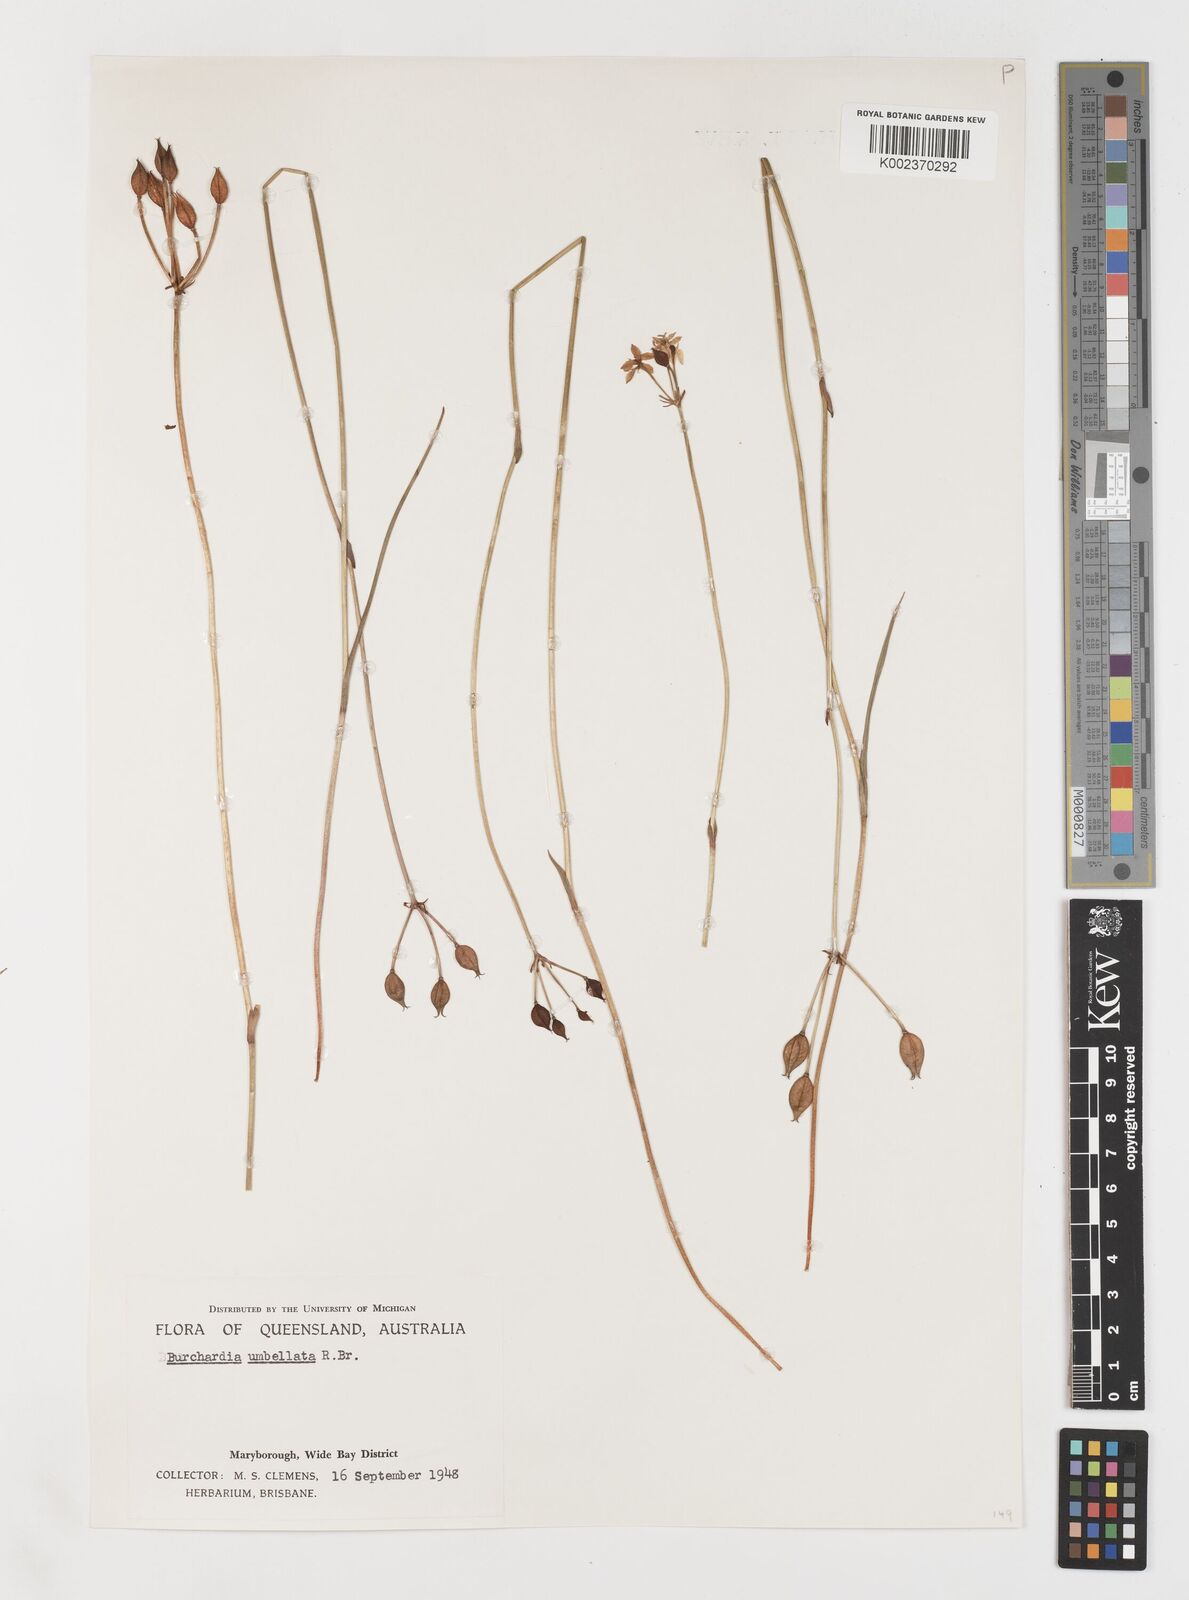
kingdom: Plantae
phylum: Tracheophyta
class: Liliopsida
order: Liliales
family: Colchicaceae
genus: Burchardia
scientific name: Burchardia umbellata
